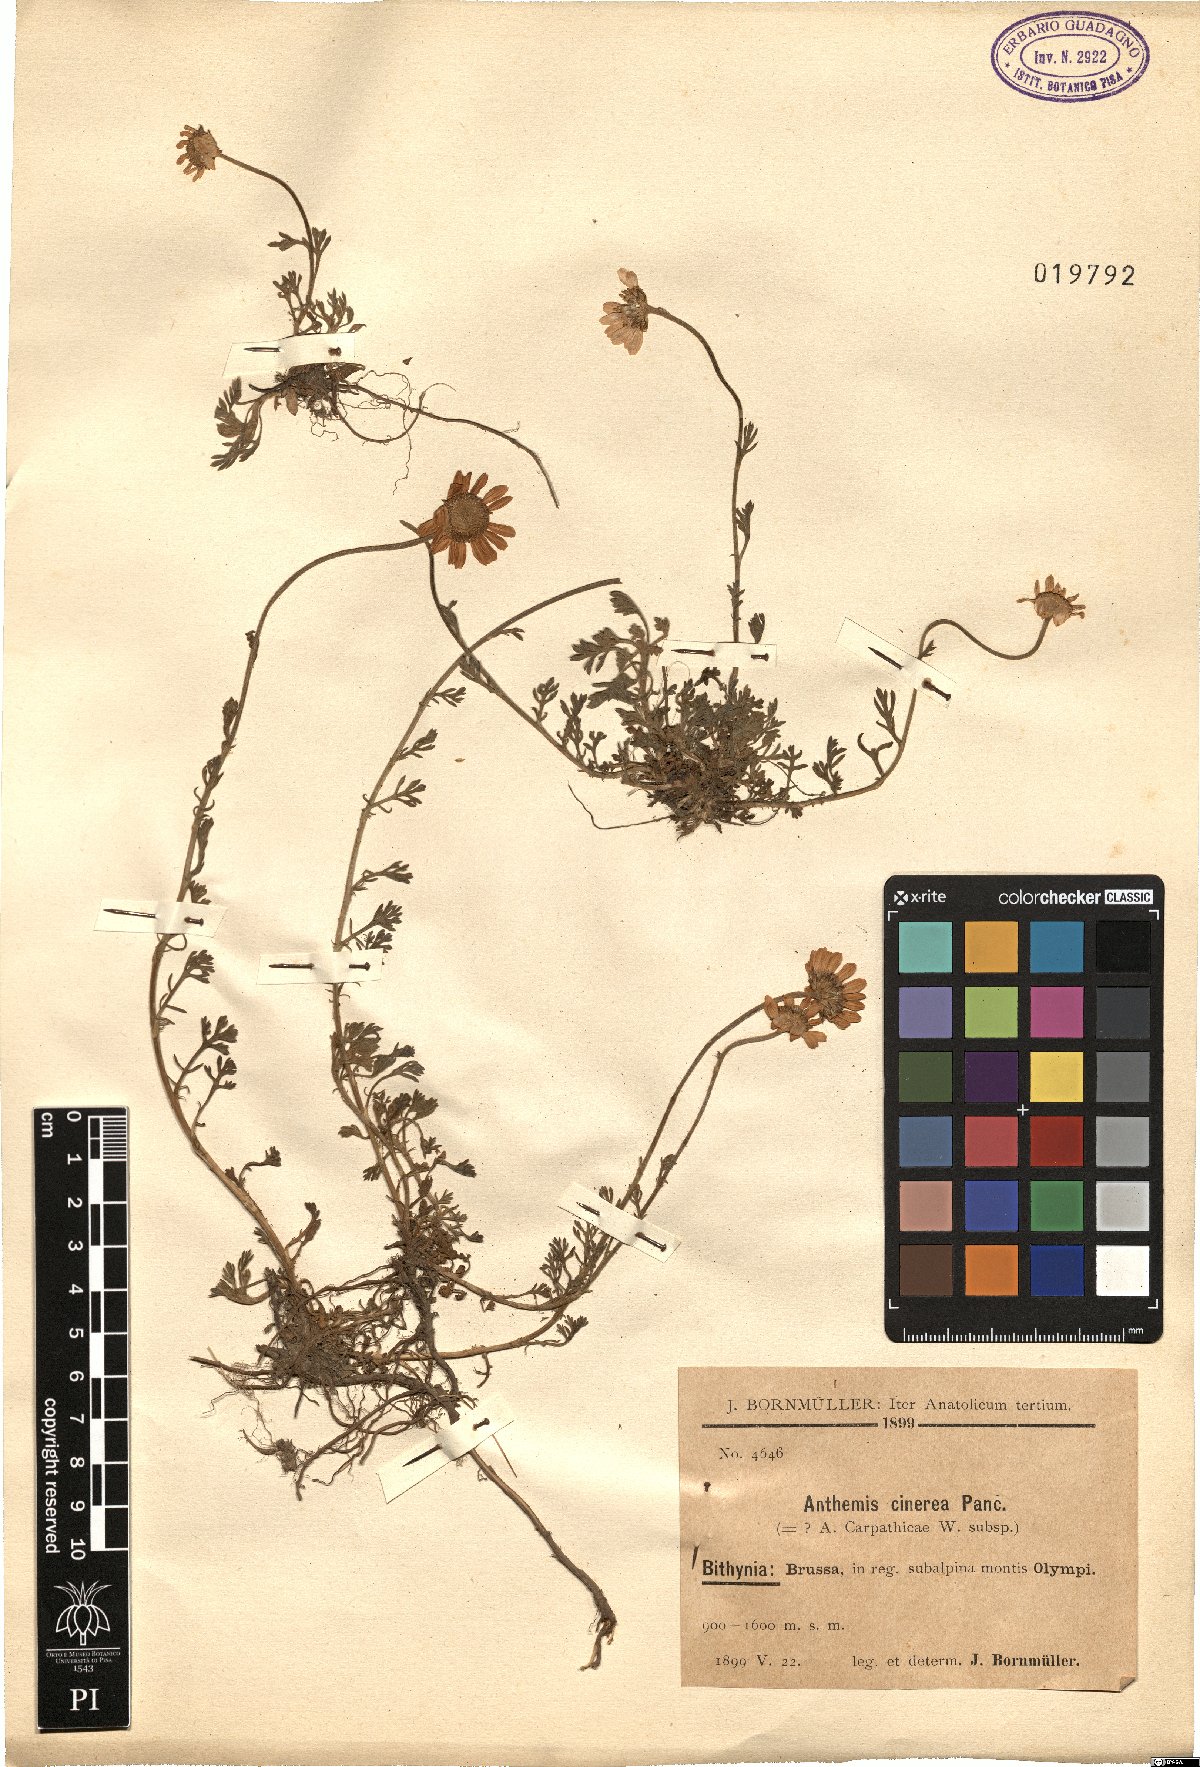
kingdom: Plantae
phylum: Tracheophyta
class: Magnoliopsida
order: Asterales
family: Asteraceae
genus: Anthemis
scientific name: Anthemis cretica
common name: Mountain dog-daisy
